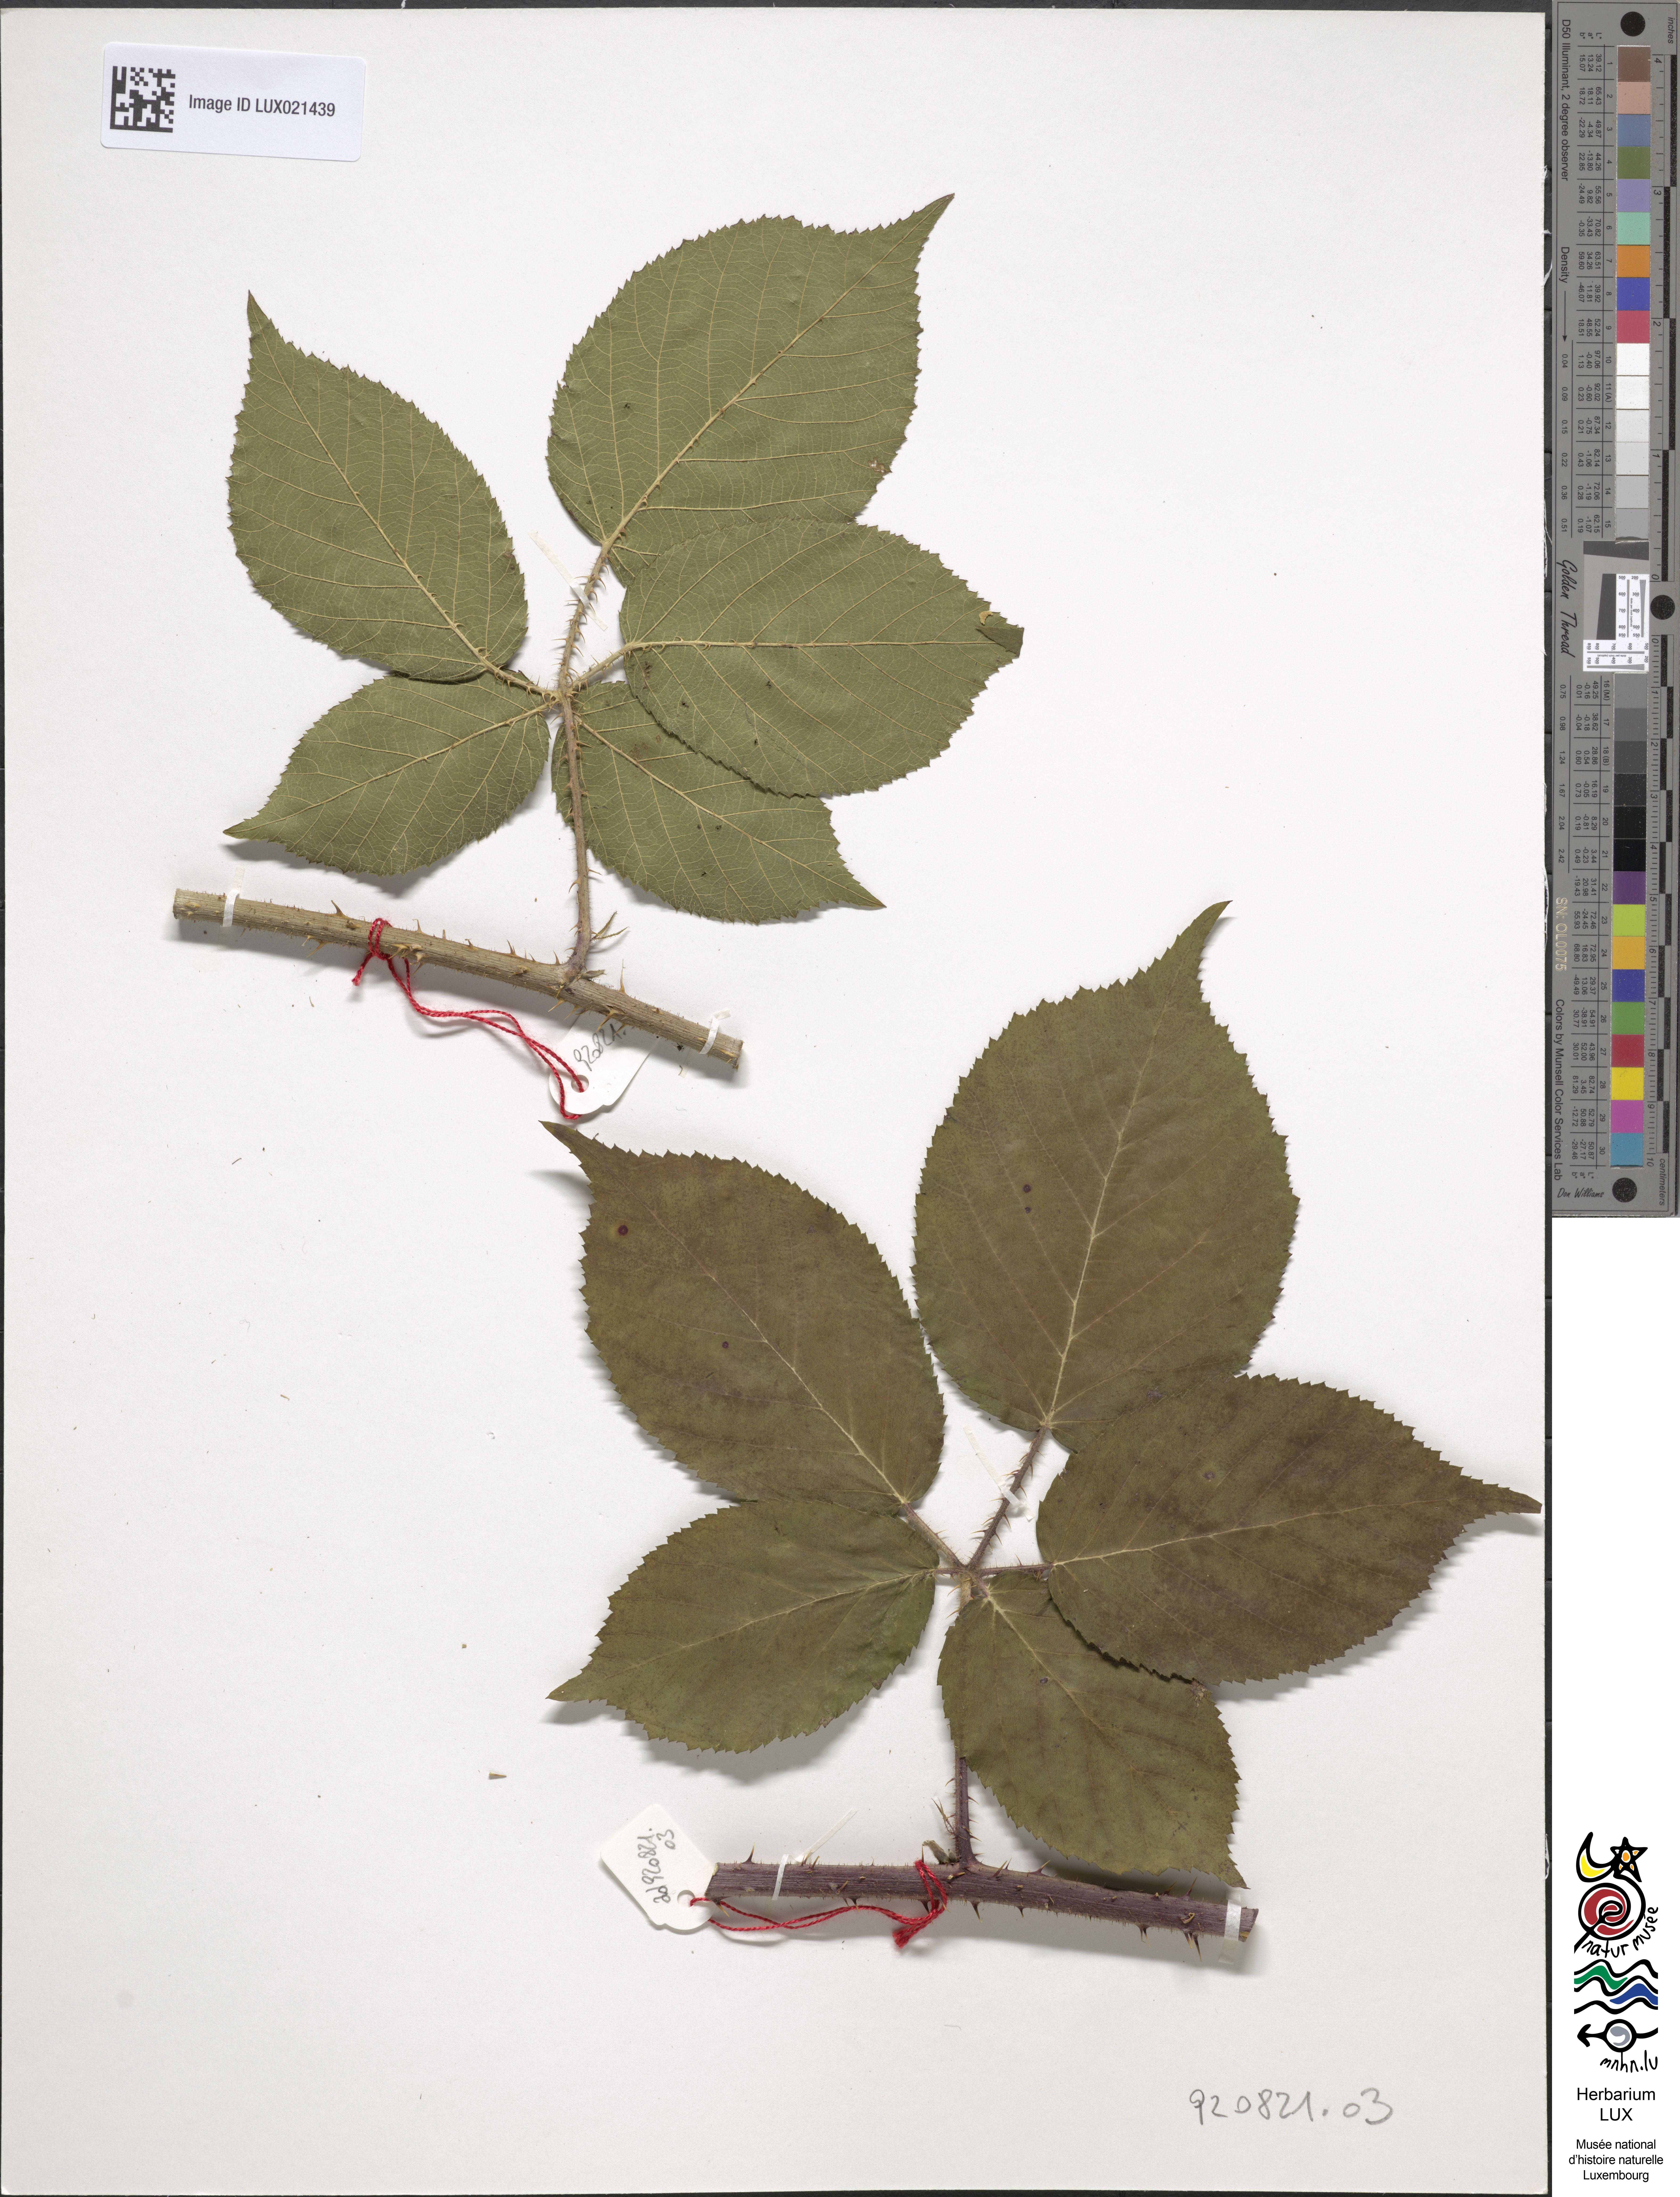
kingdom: Plantae
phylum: Tracheophyta
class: Magnoliopsida
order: Rosales
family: Rosaceae
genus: Rubus
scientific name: Rubus
